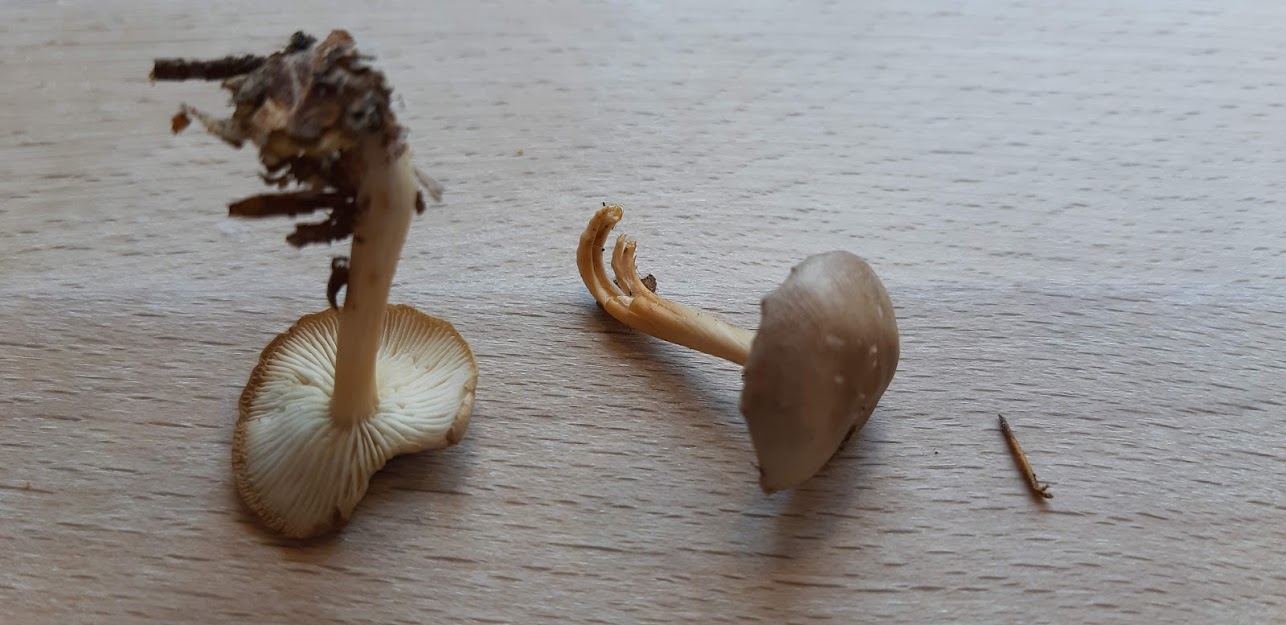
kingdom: Fungi
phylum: Basidiomycota
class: Agaricomycetes
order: Agaricales
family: Omphalotaceae
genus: Gymnopus
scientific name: Gymnopus
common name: fladhat
